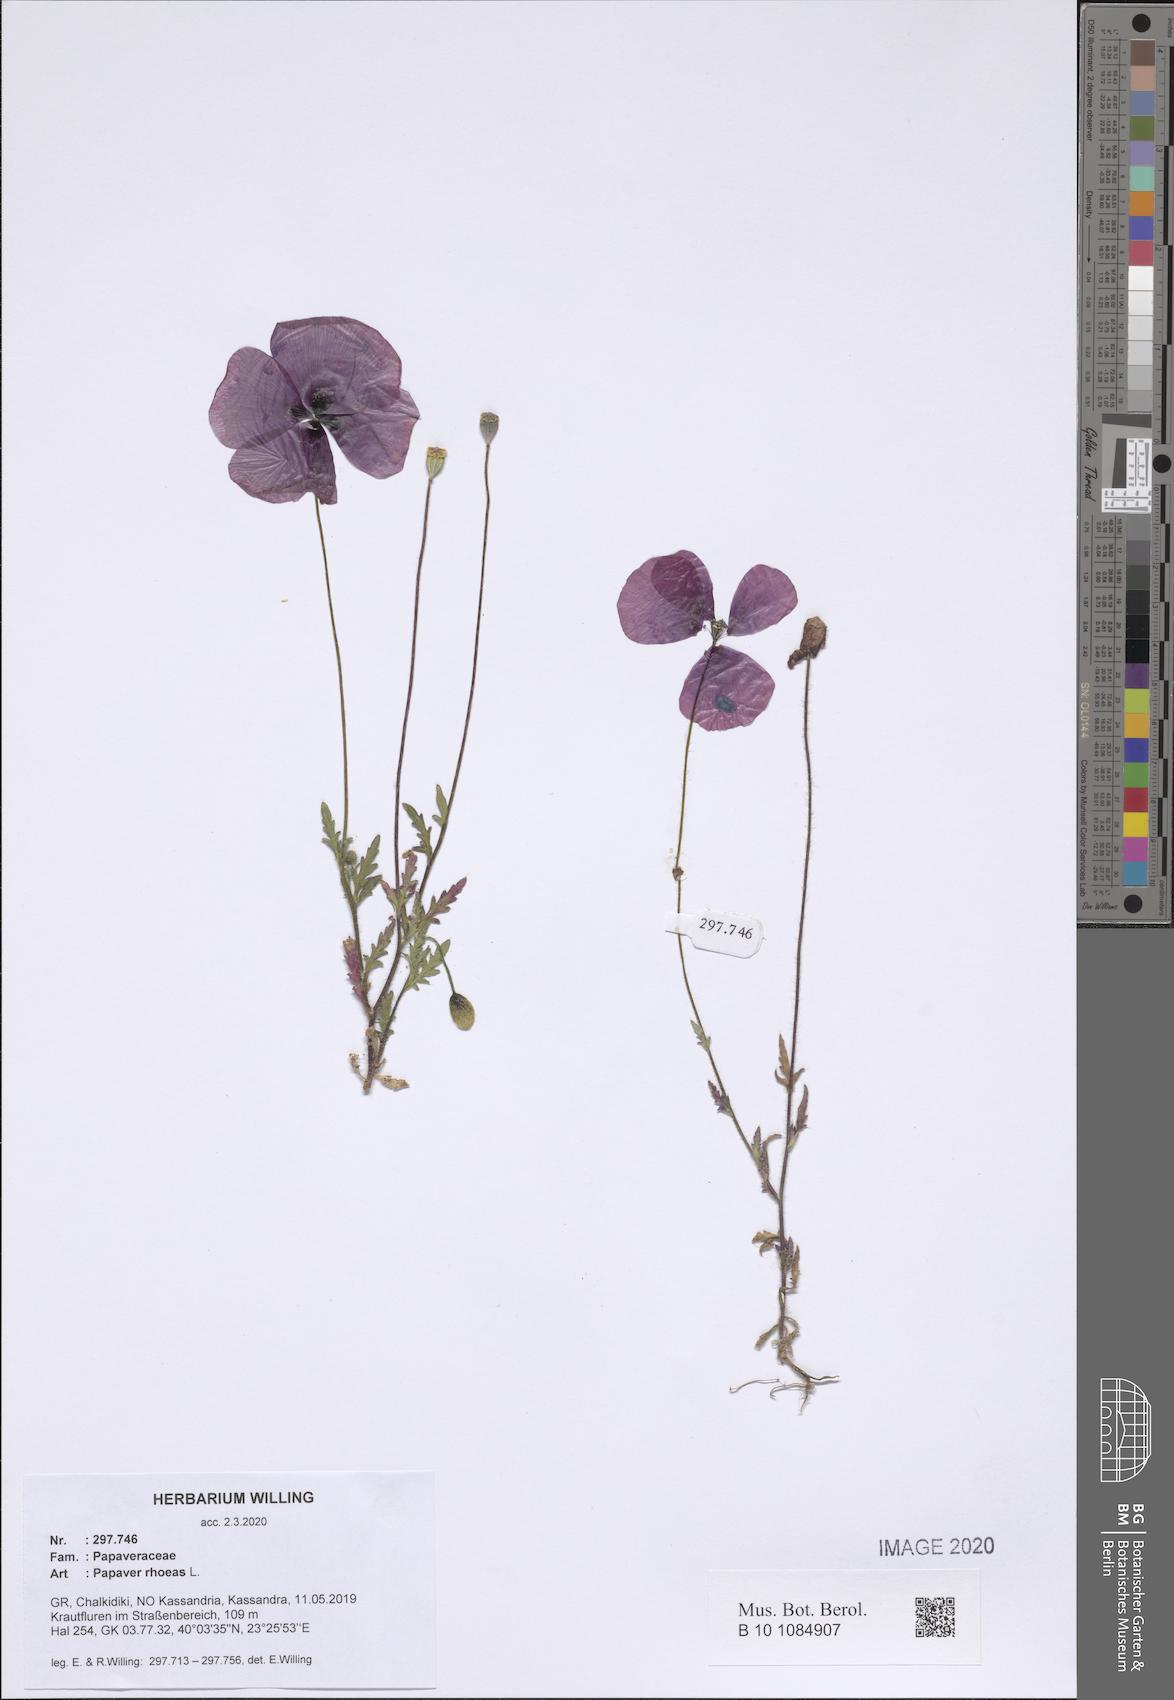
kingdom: Plantae
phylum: Tracheophyta
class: Magnoliopsida
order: Ranunculales
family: Papaveraceae
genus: Papaver
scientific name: Papaver rhoeas
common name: Corn poppy
